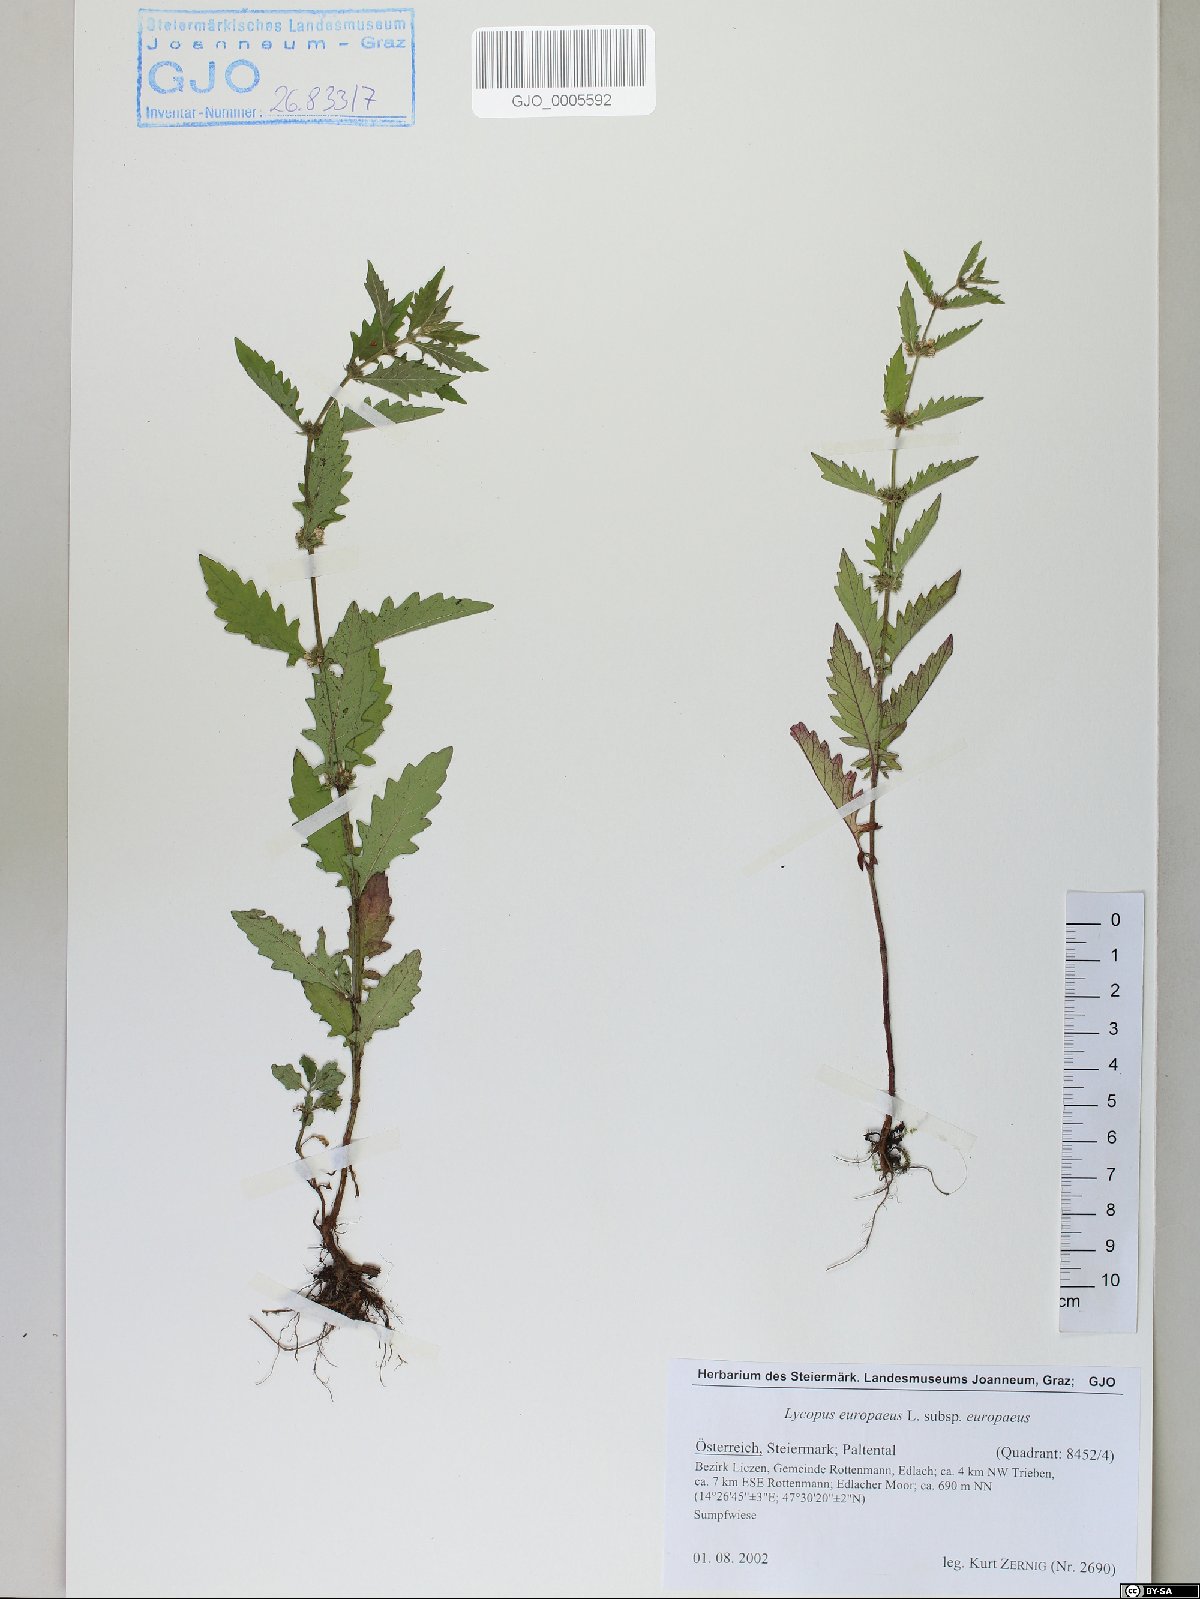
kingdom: Plantae
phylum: Tracheophyta
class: Magnoliopsida
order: Lamiales
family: Lamiaceae
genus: Lycopus
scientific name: Lycopus europaeus
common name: European bugleweed
